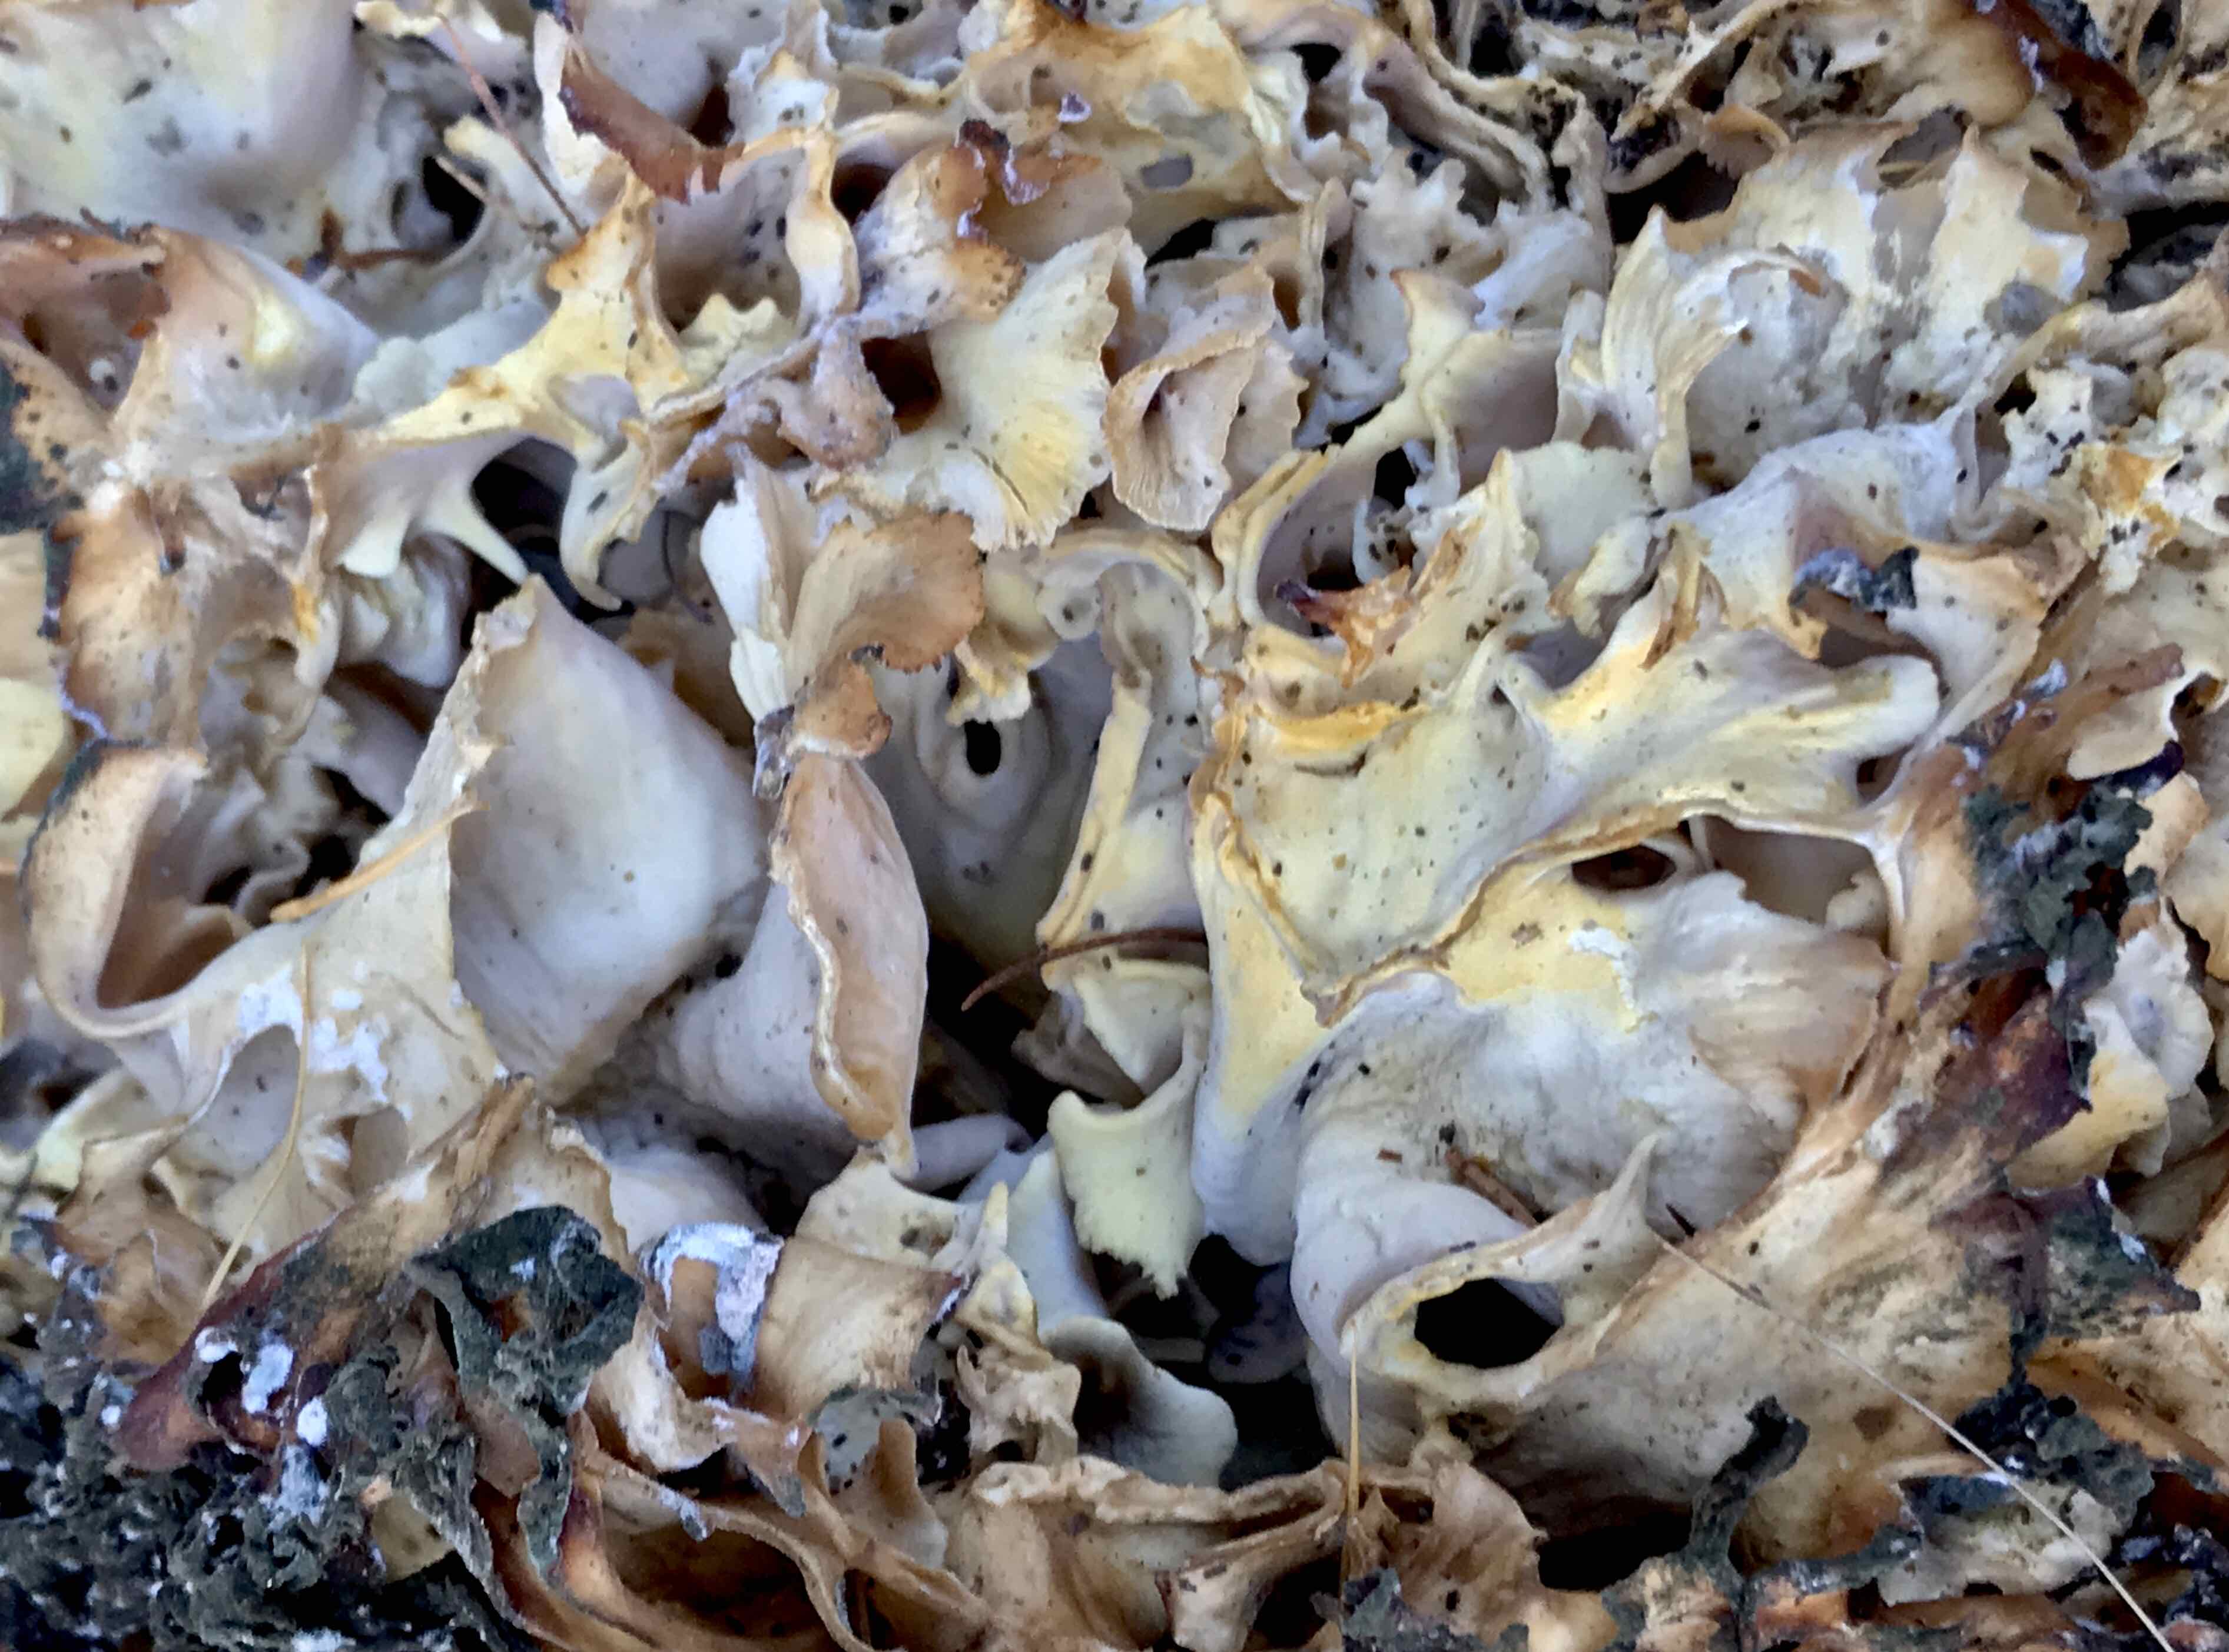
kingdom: Fungi
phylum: Basidiomycota
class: Agaricomycetes
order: Polyporales
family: Sparassidaceae
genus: Sparassis
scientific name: Sparassis crispa
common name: kruset blomkålssvamp
